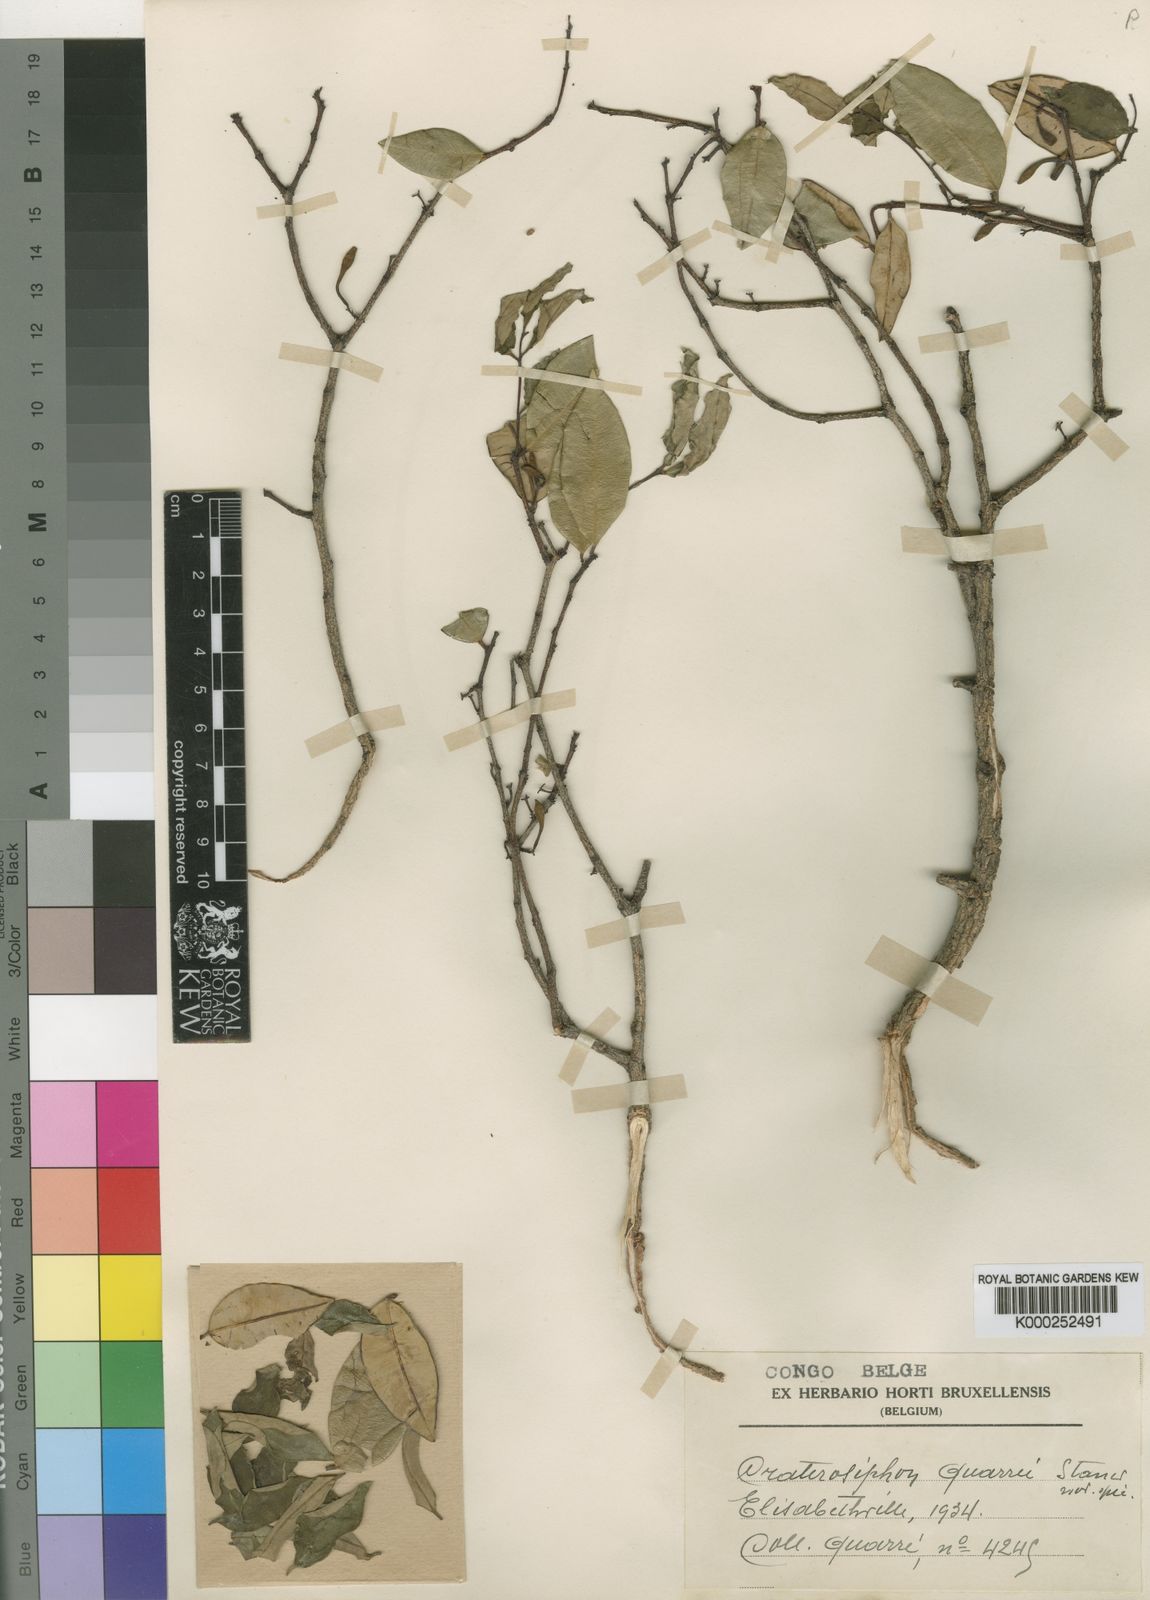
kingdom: Plantae
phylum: Tracheophyta
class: Magnoliopsida
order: Malvales
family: Thymelaeaceae
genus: Synaptolepis
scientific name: Synaptolepis
